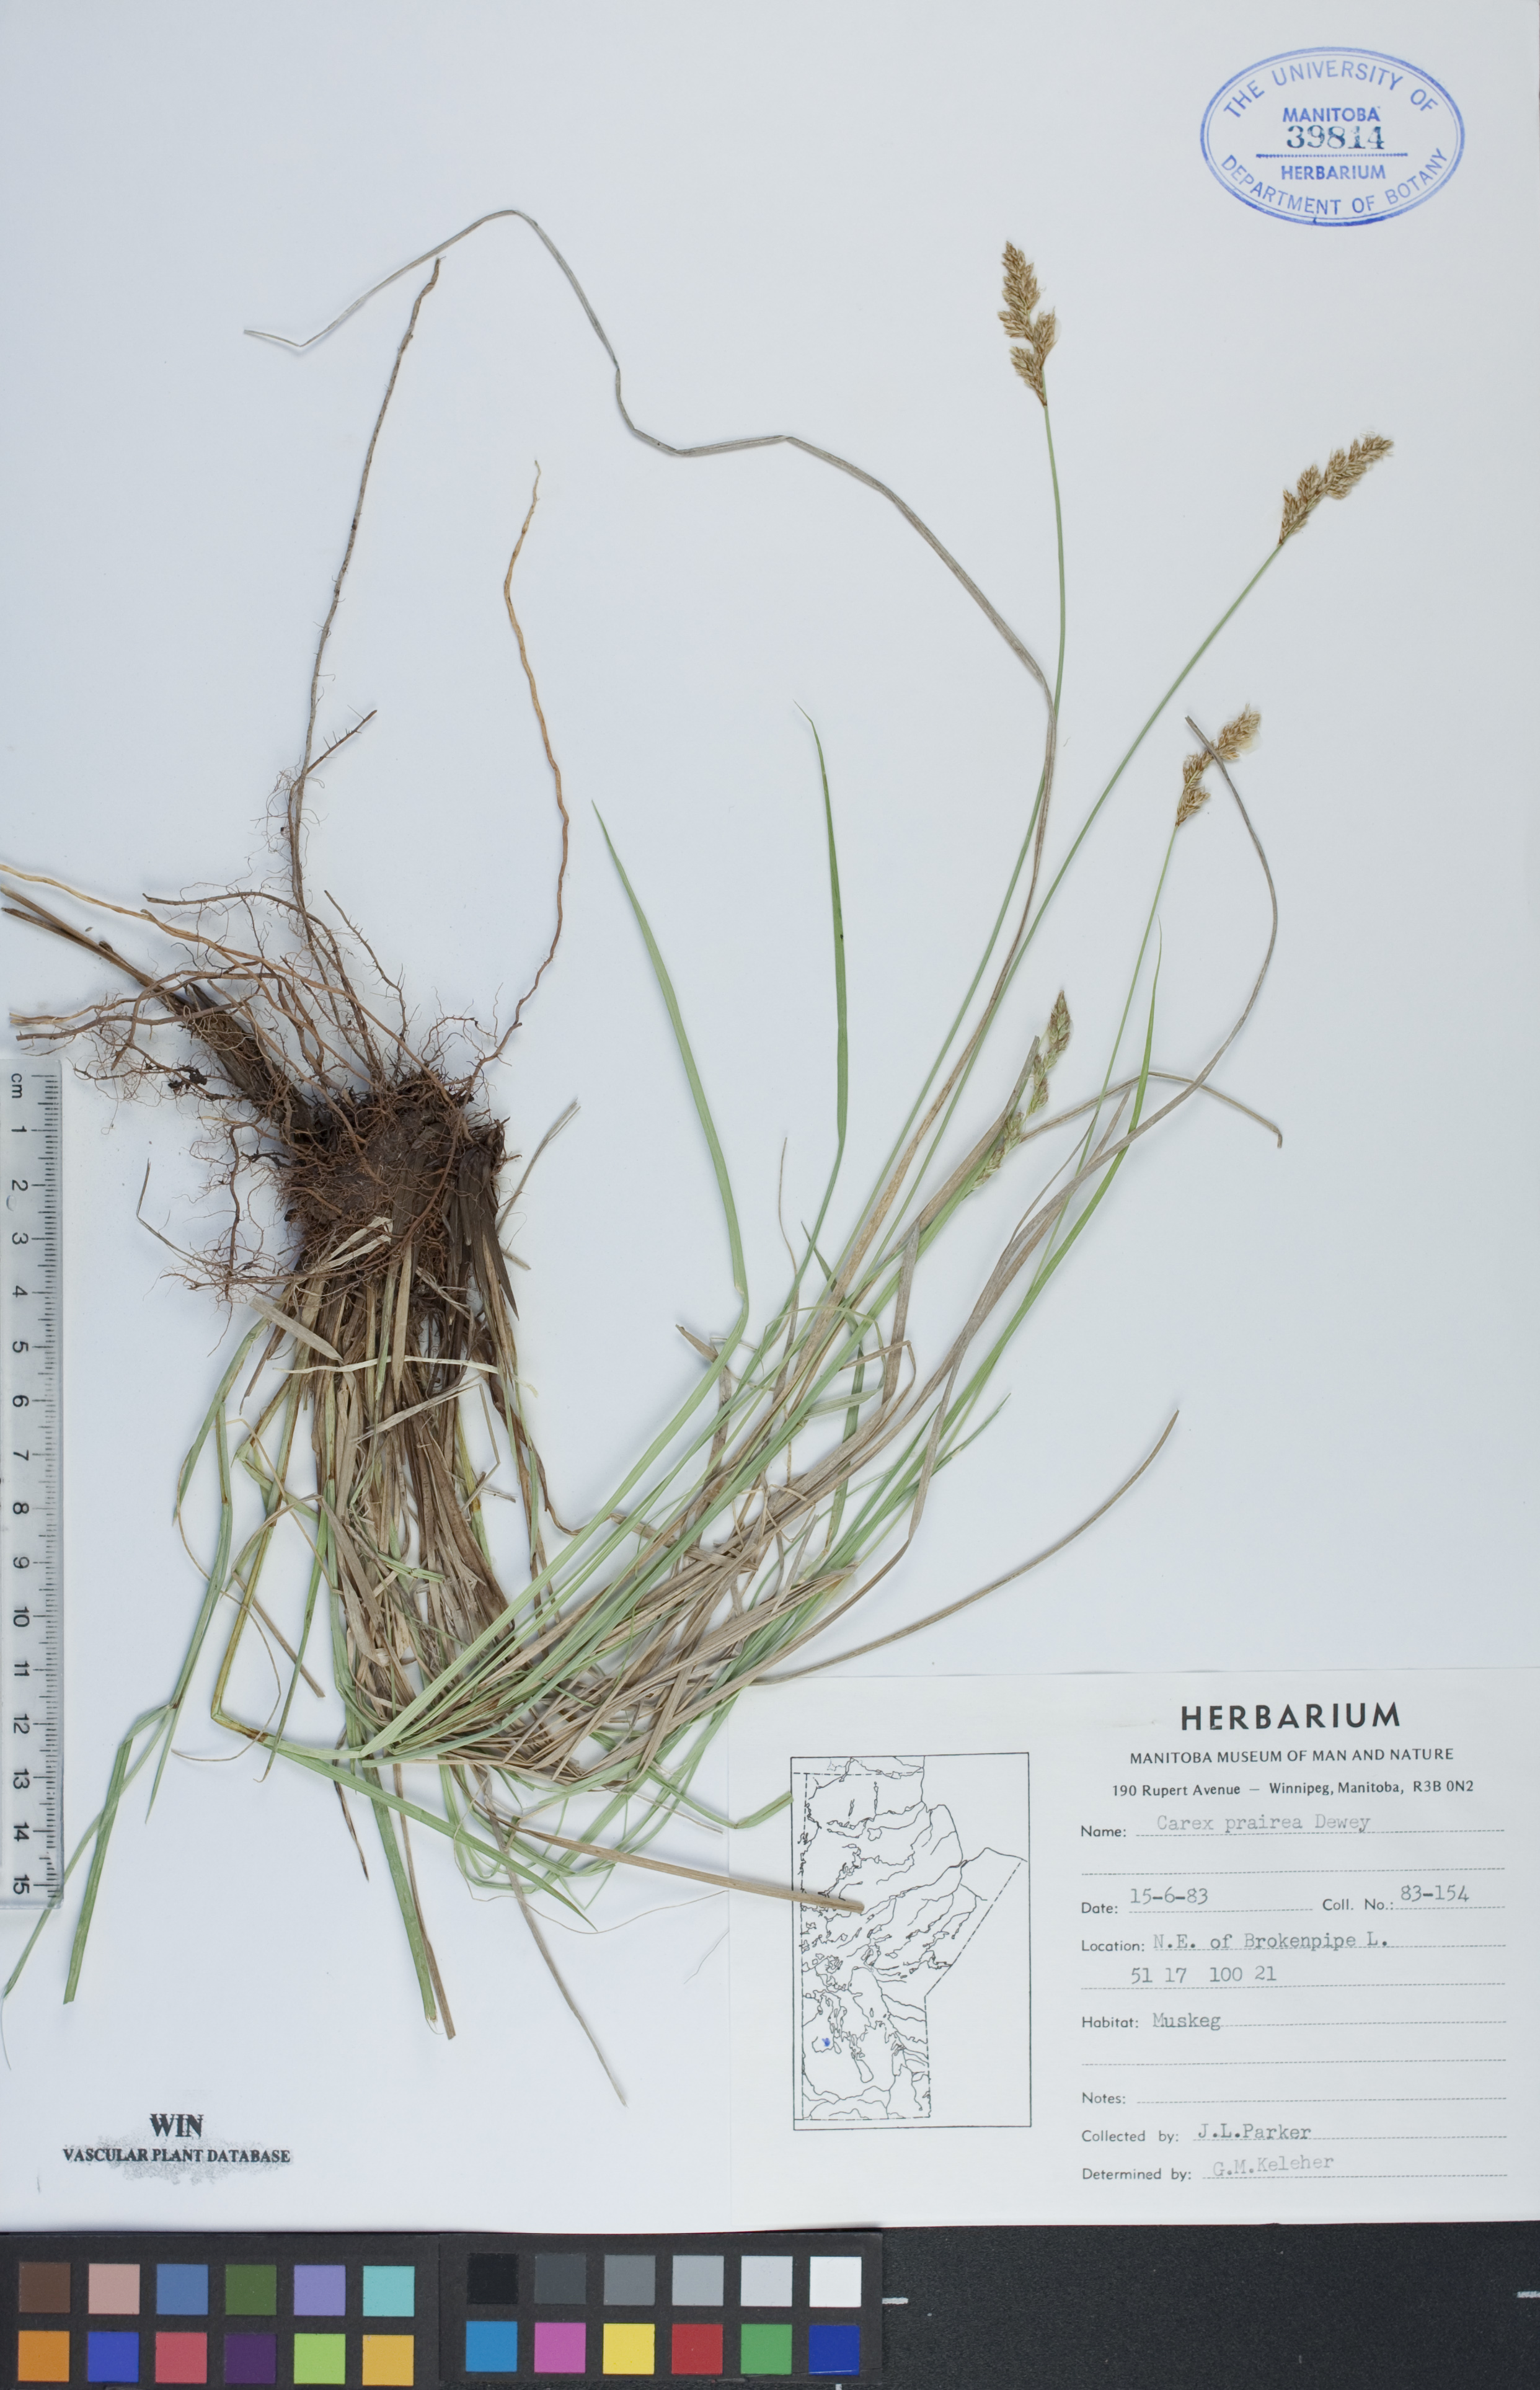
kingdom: Plantae
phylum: Tracheophyta
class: Liliopsida
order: Poales
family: Cyperaceae
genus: Carex
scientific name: Carex prairea
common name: Prairie sedge
